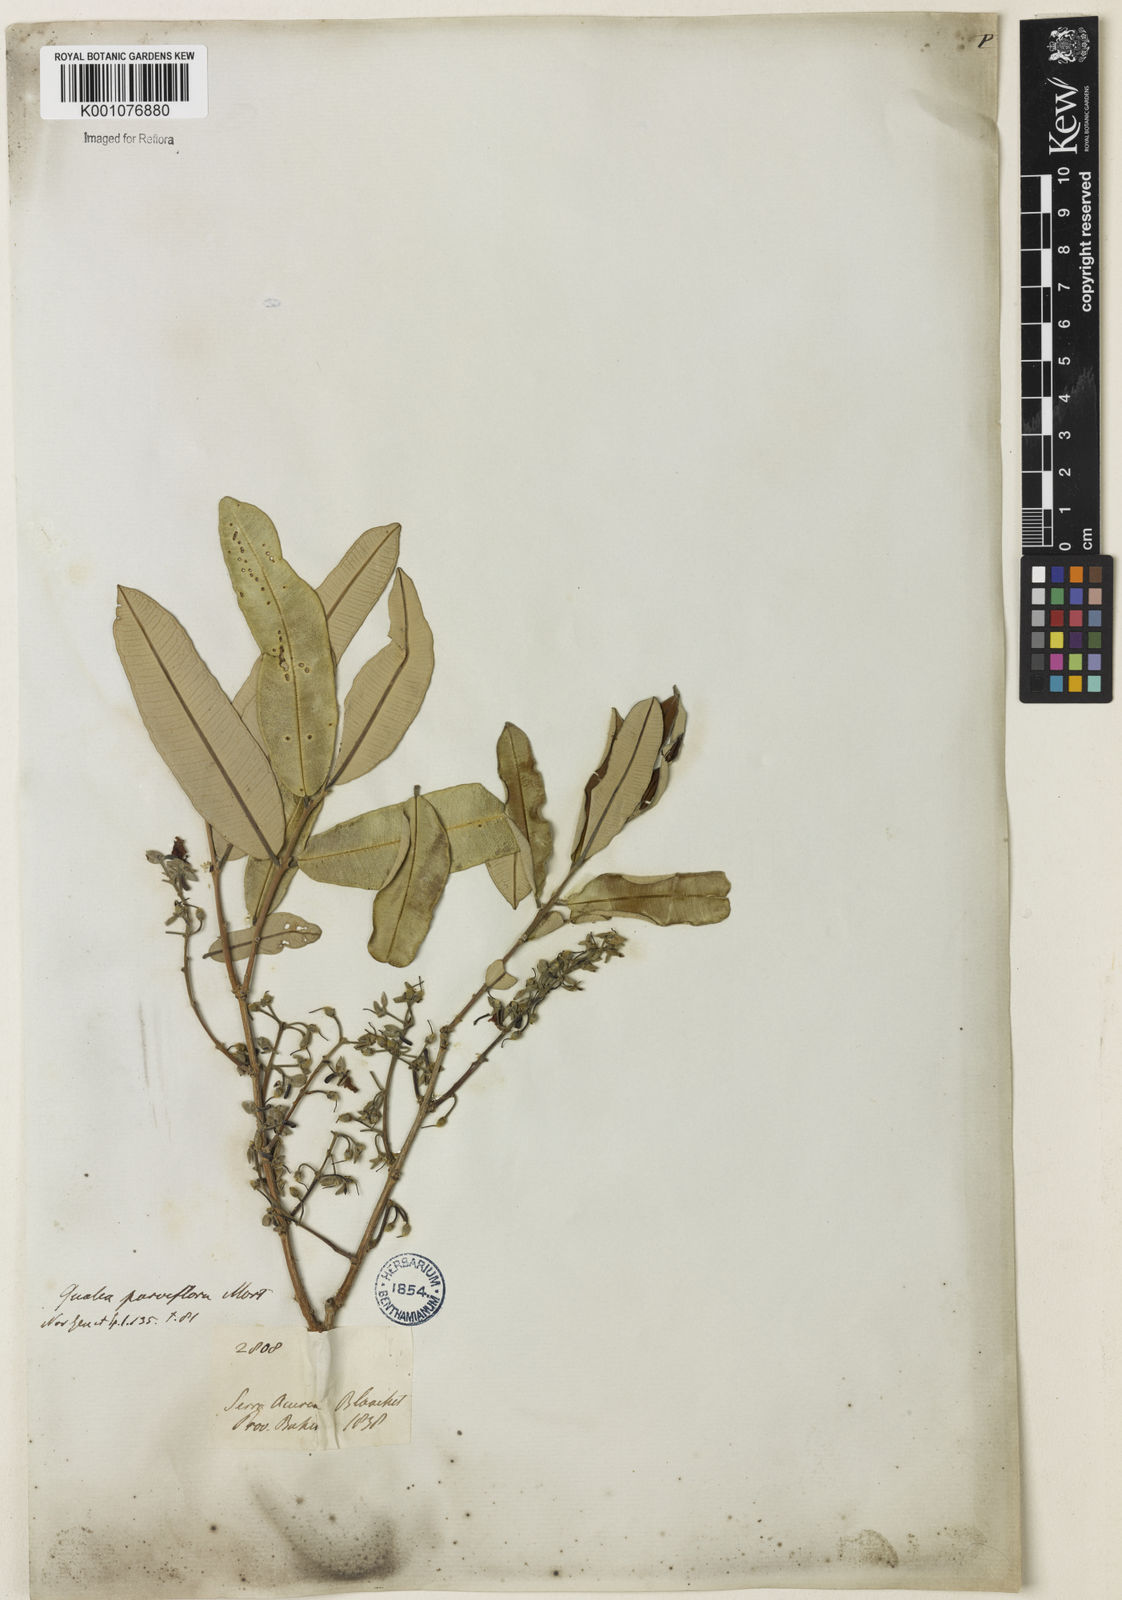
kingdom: Plantae
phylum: Tracheophyta
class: Magnoliopsida
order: Myrtales
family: Vochysiaceae
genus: Qualea
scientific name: Qualea parviflora
